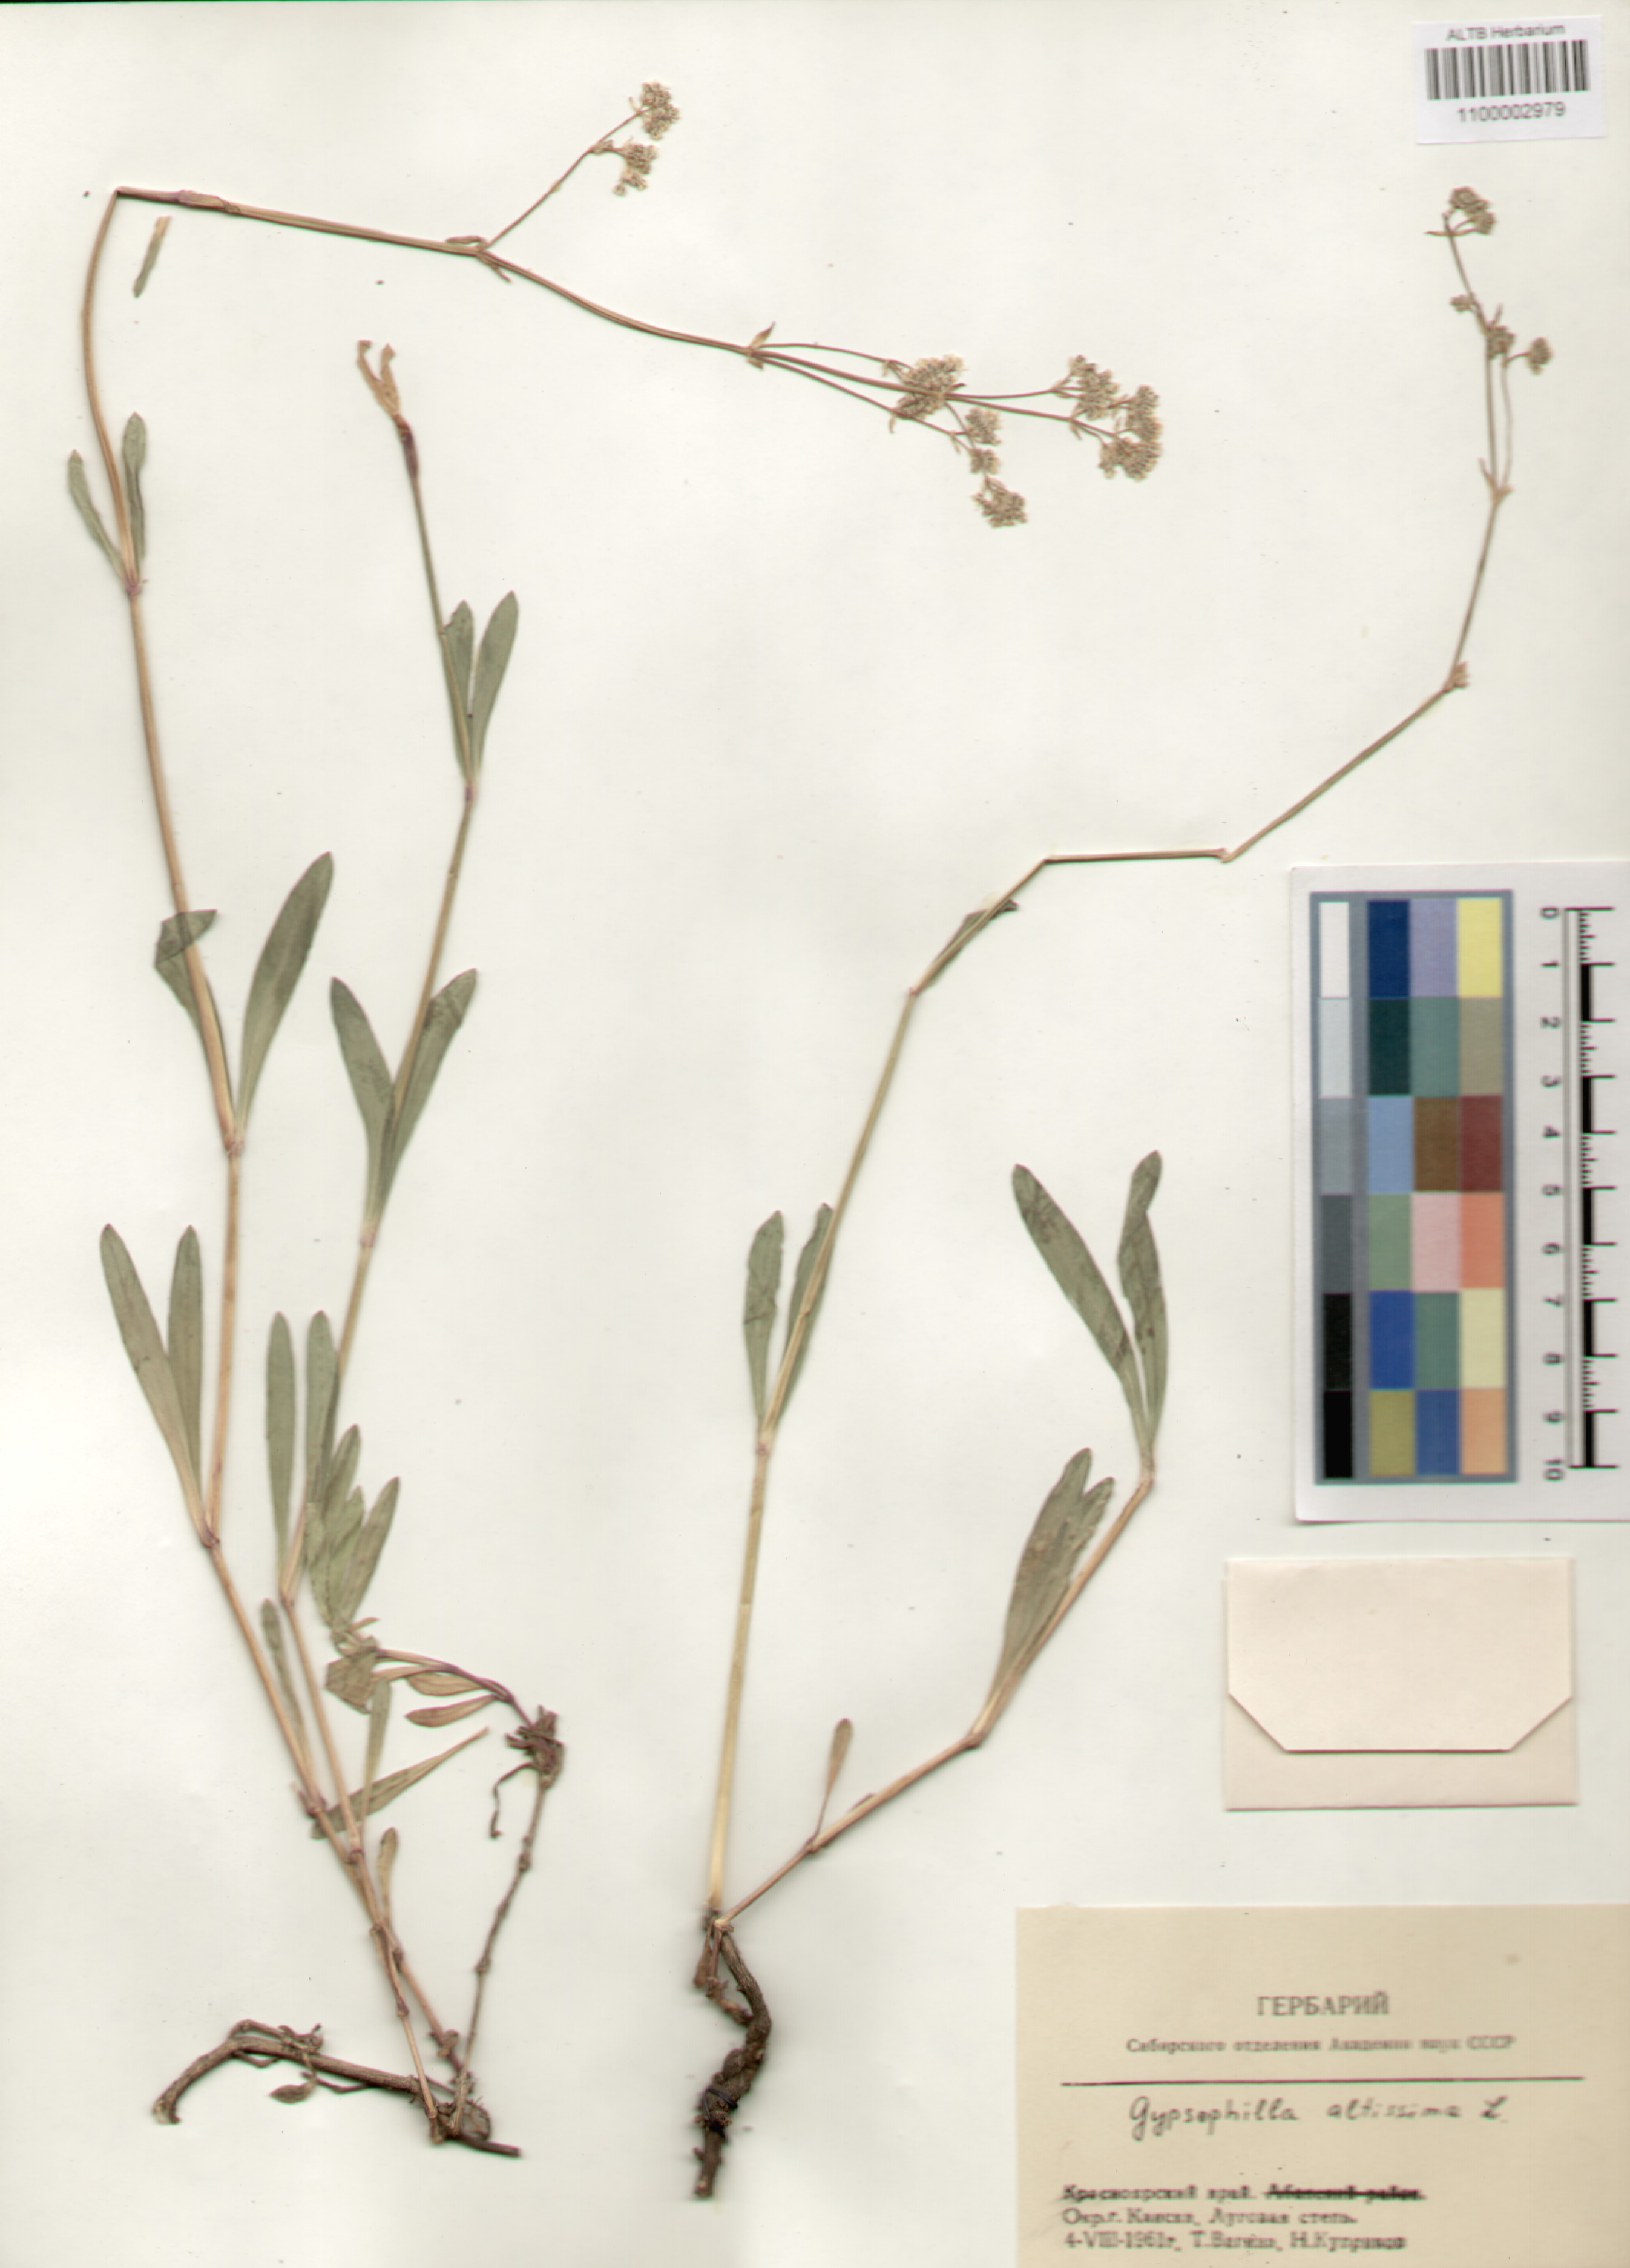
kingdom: Plantae
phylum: Tracheophyta
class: Magnoliopsida
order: Caryophyllales
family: Caryophyllaceae
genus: Gypsophila
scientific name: Gypsophila altissima
